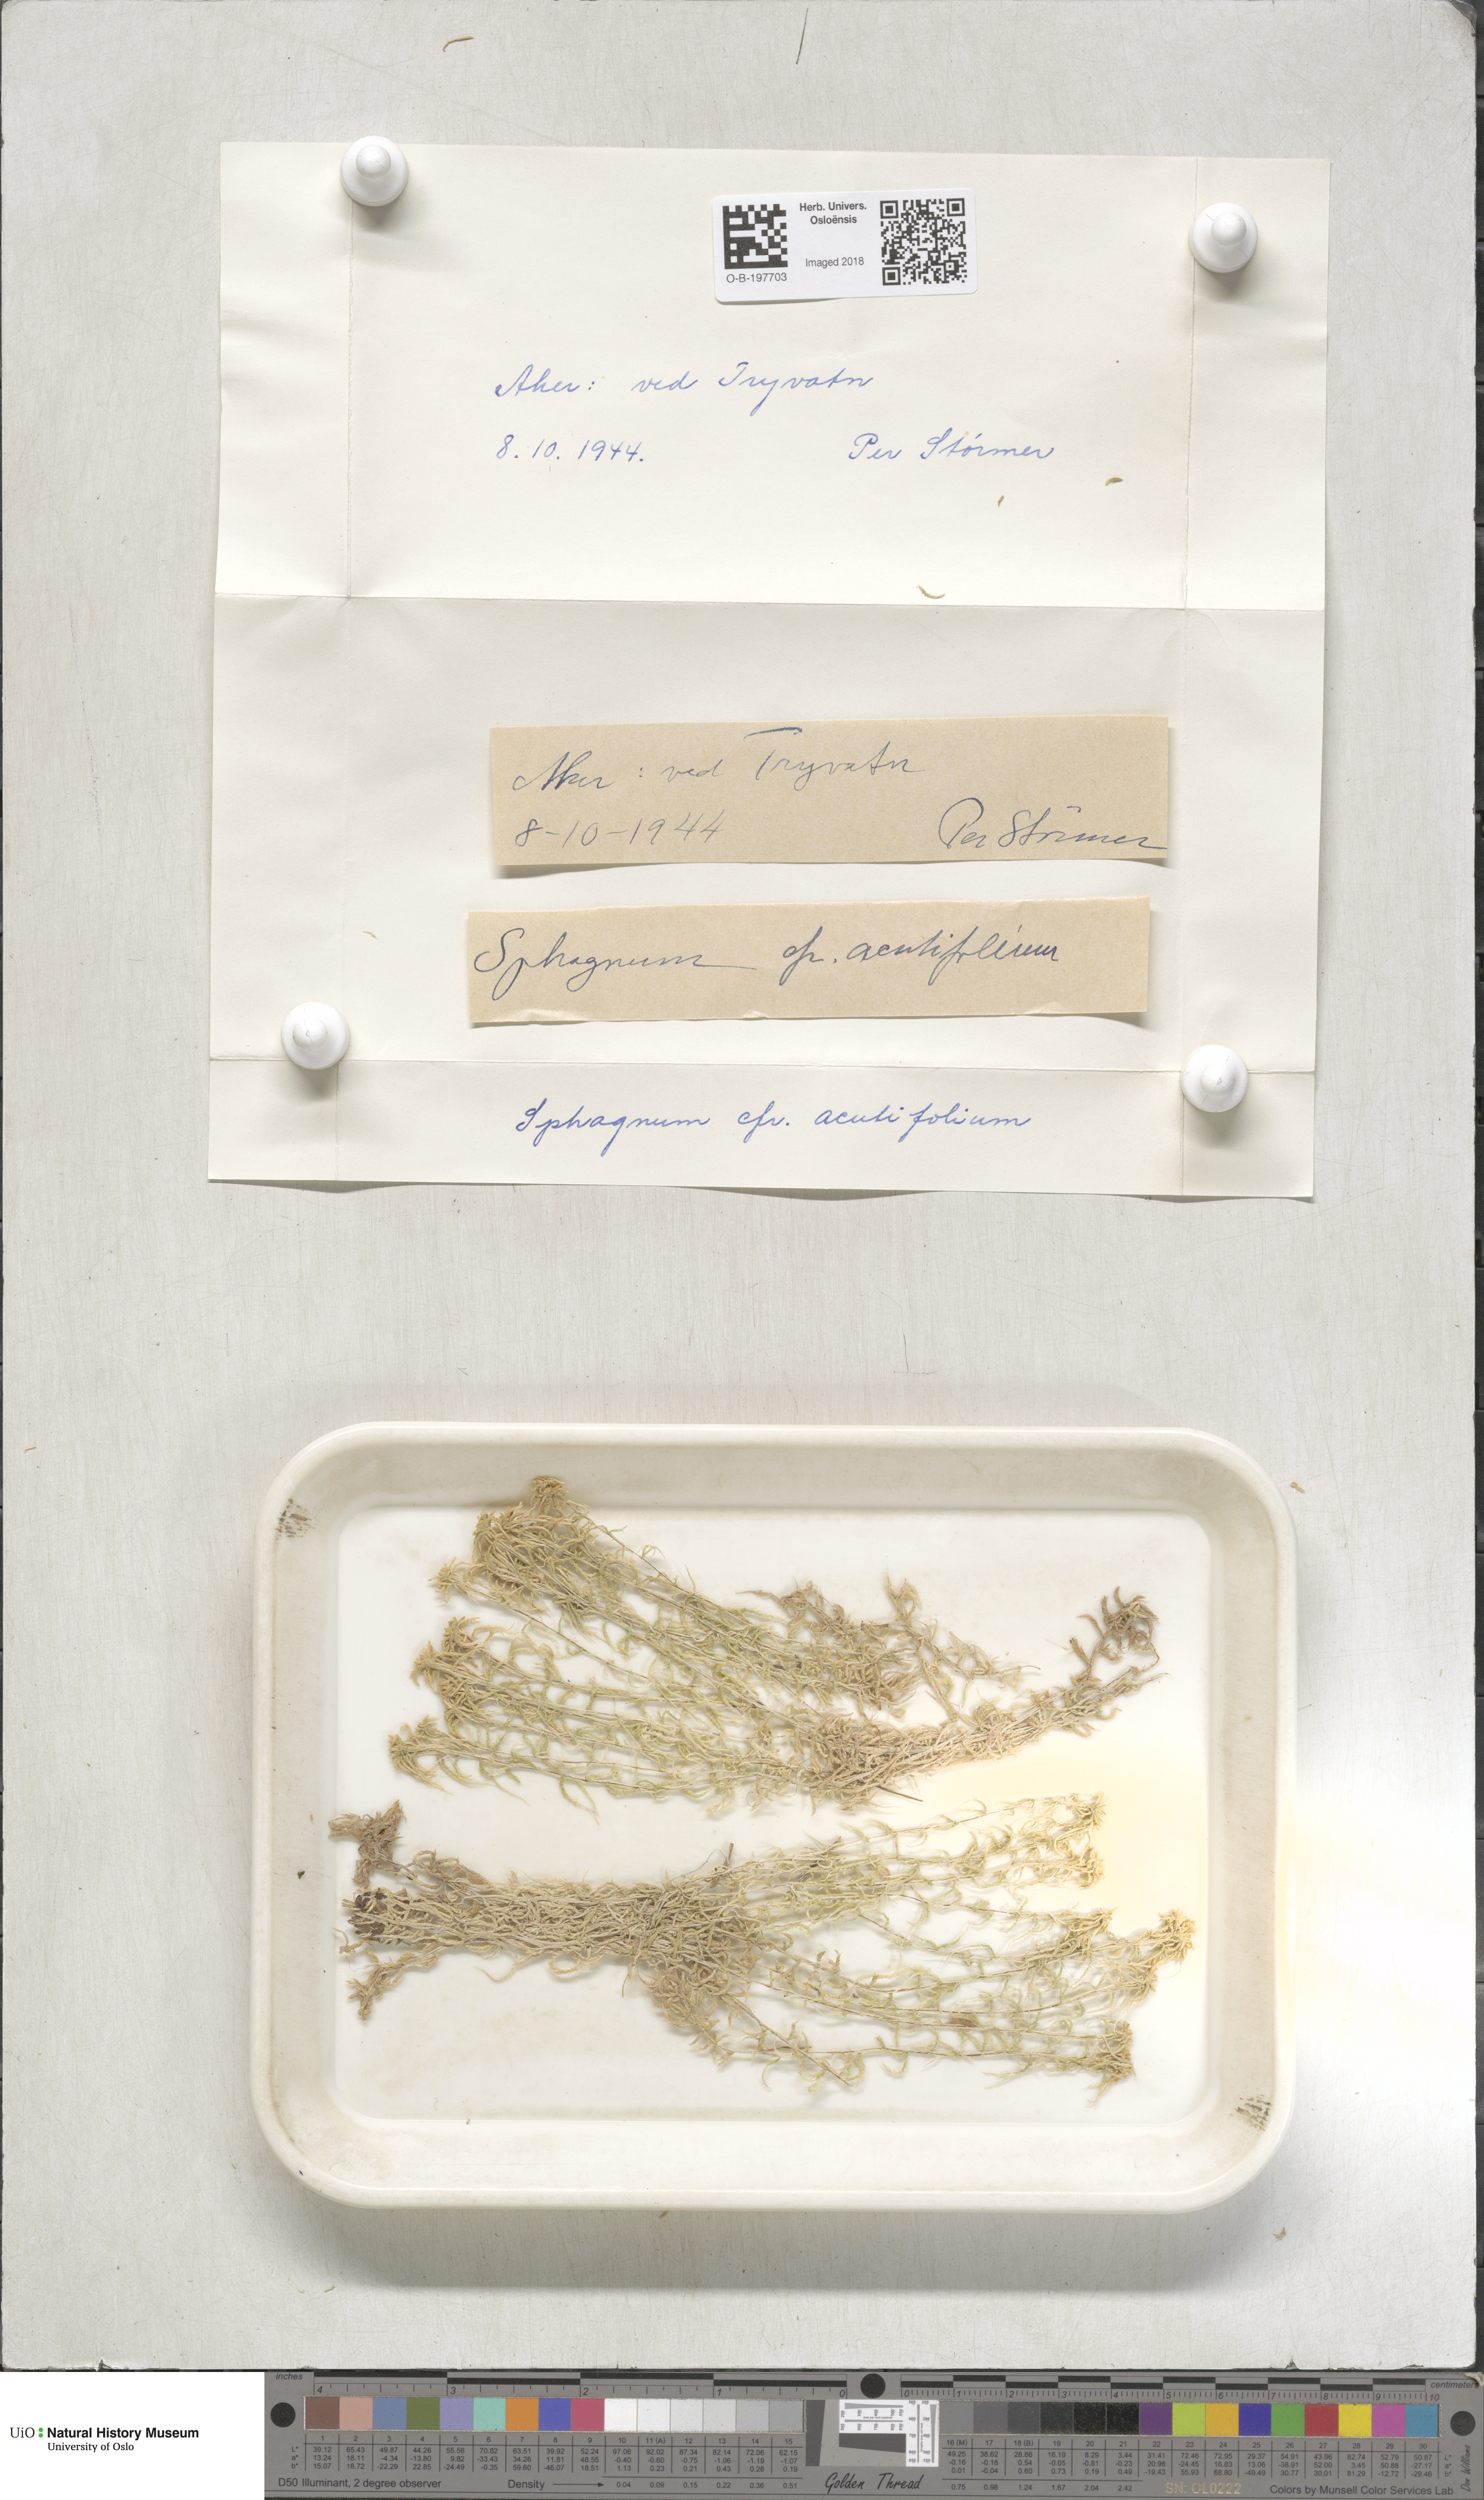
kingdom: Plantae
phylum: Bryophyta
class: Sphagnopsida
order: Sphagnales
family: Sphagnaceae
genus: Sphagnum
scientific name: Sphagnum capillifolium
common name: Small red peat moss
